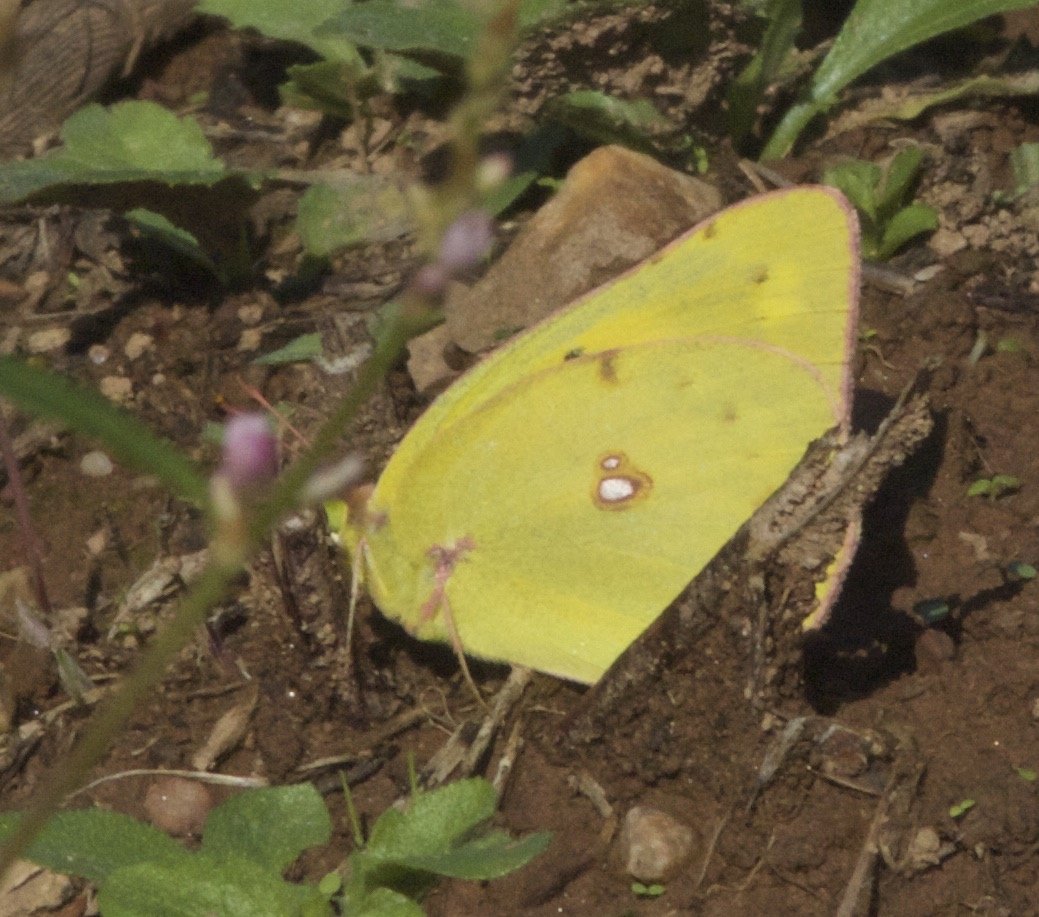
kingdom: Animalia
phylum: Arthropoda
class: Insecta
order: Lepidoptera
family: Pieridae
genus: Colias
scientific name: Colias eurytheme
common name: Orange Sulphur
